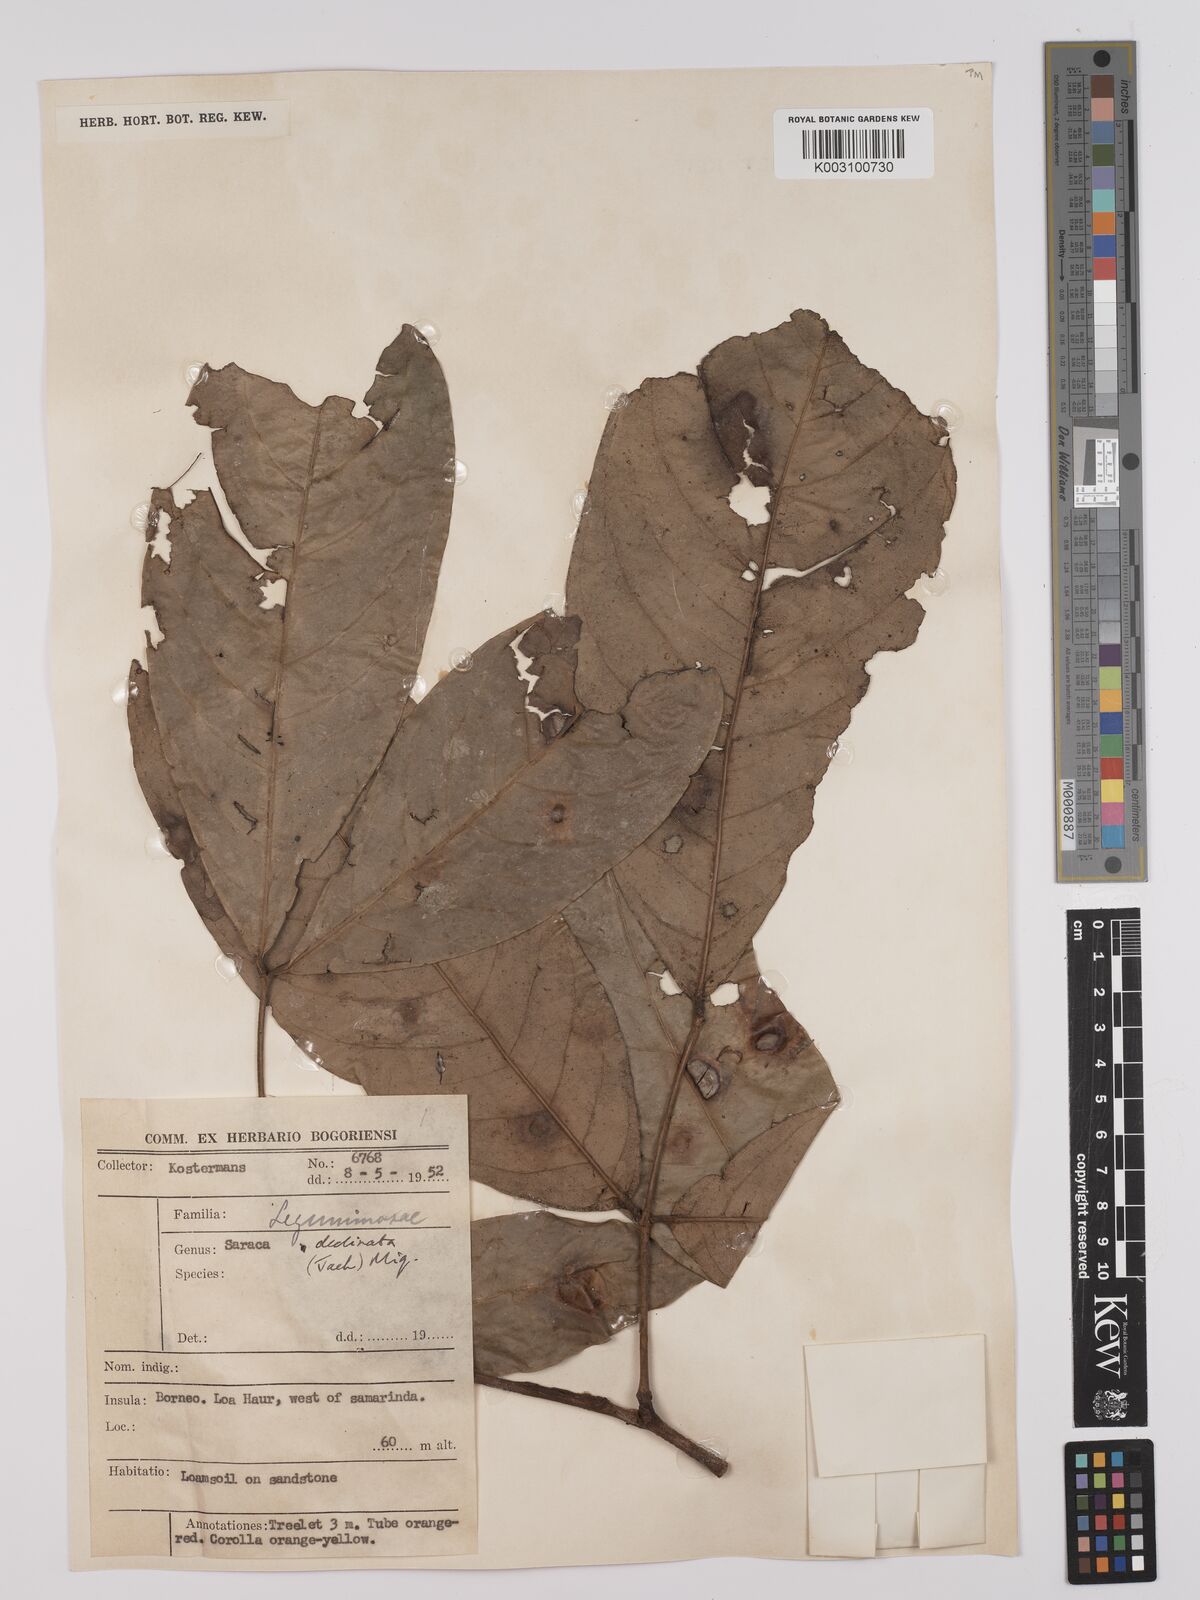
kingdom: Plantae
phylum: Tracheophyta
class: Magnoliopsida
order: Fabales
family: Fabaceae
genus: Saraca
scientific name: Saraca declinata
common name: Red saraca
